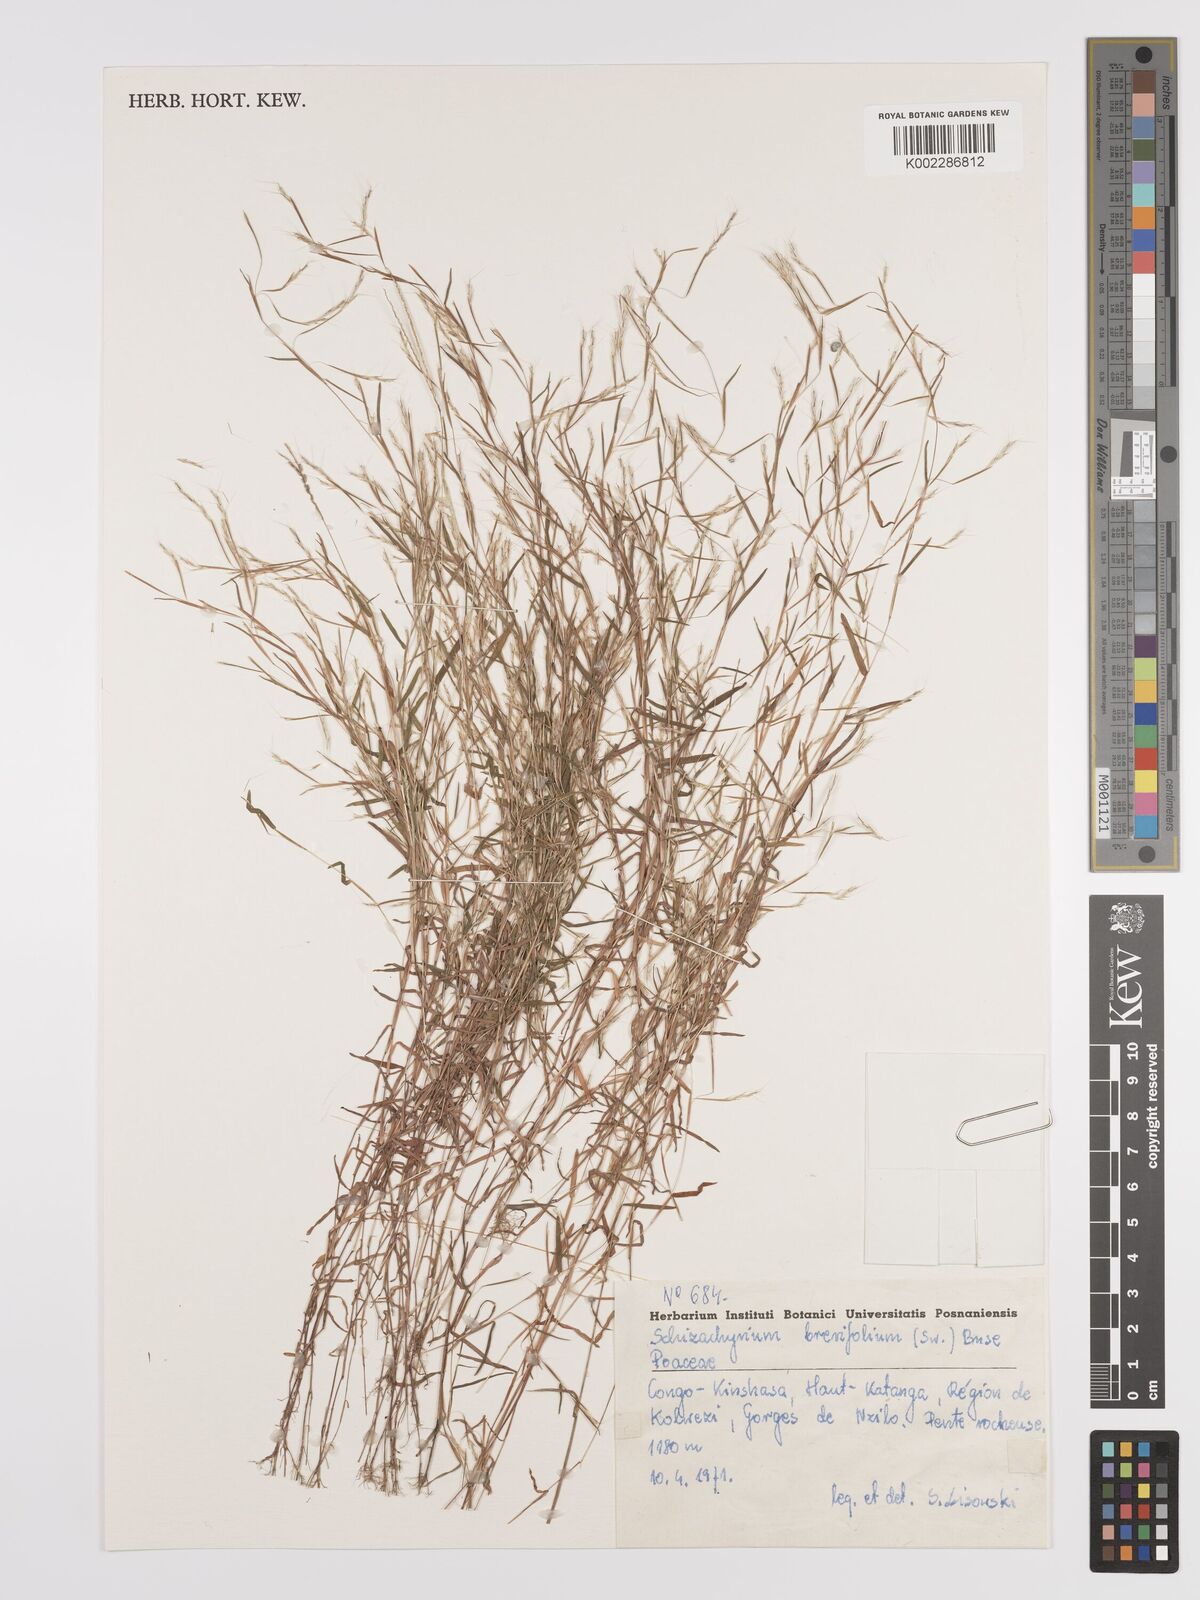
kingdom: Plantae
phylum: Tracheophyta
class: Liliopsida
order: Poales
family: Poaceae
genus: Schizachyrium
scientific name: Schizachyrium brevifolium
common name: Serillo dulce
